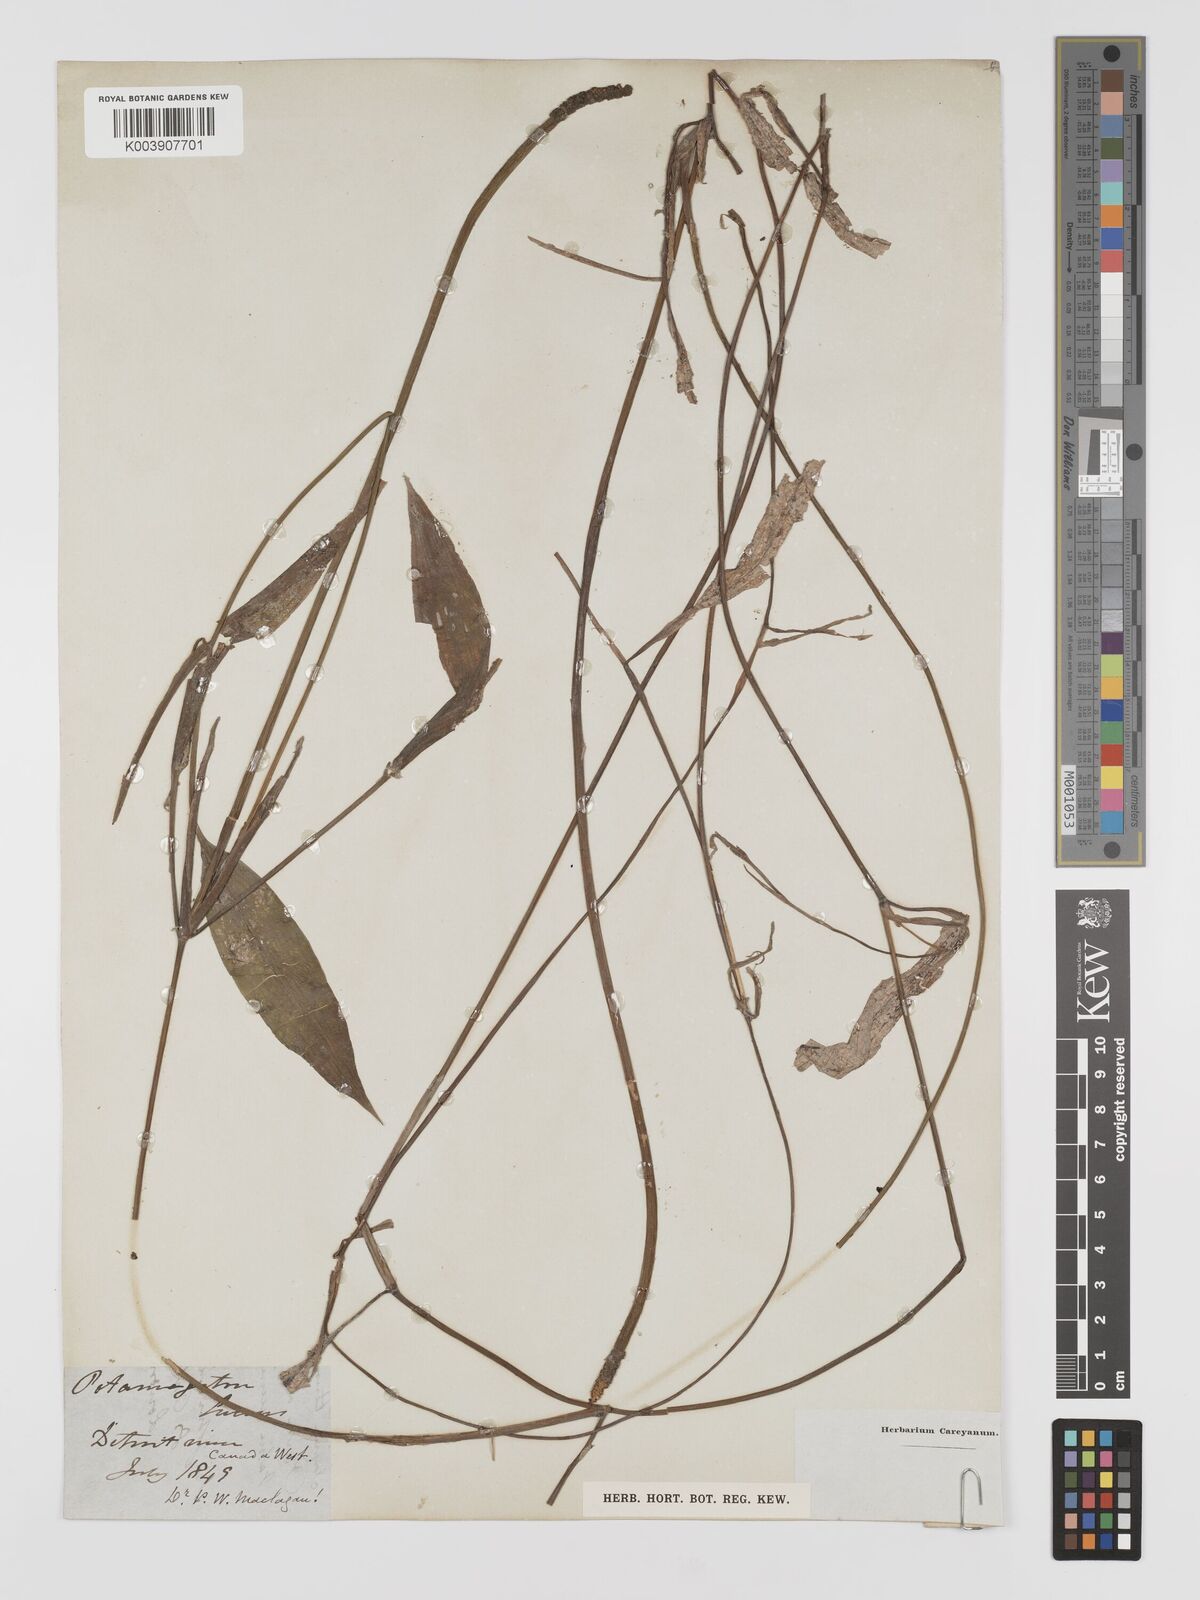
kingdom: Plantae
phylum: Tracheophyta
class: Liliopsida
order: Alismatales
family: Potamogetonaceae
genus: Potamogeton
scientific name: Potamogeton lucens
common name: Shining pondweed
